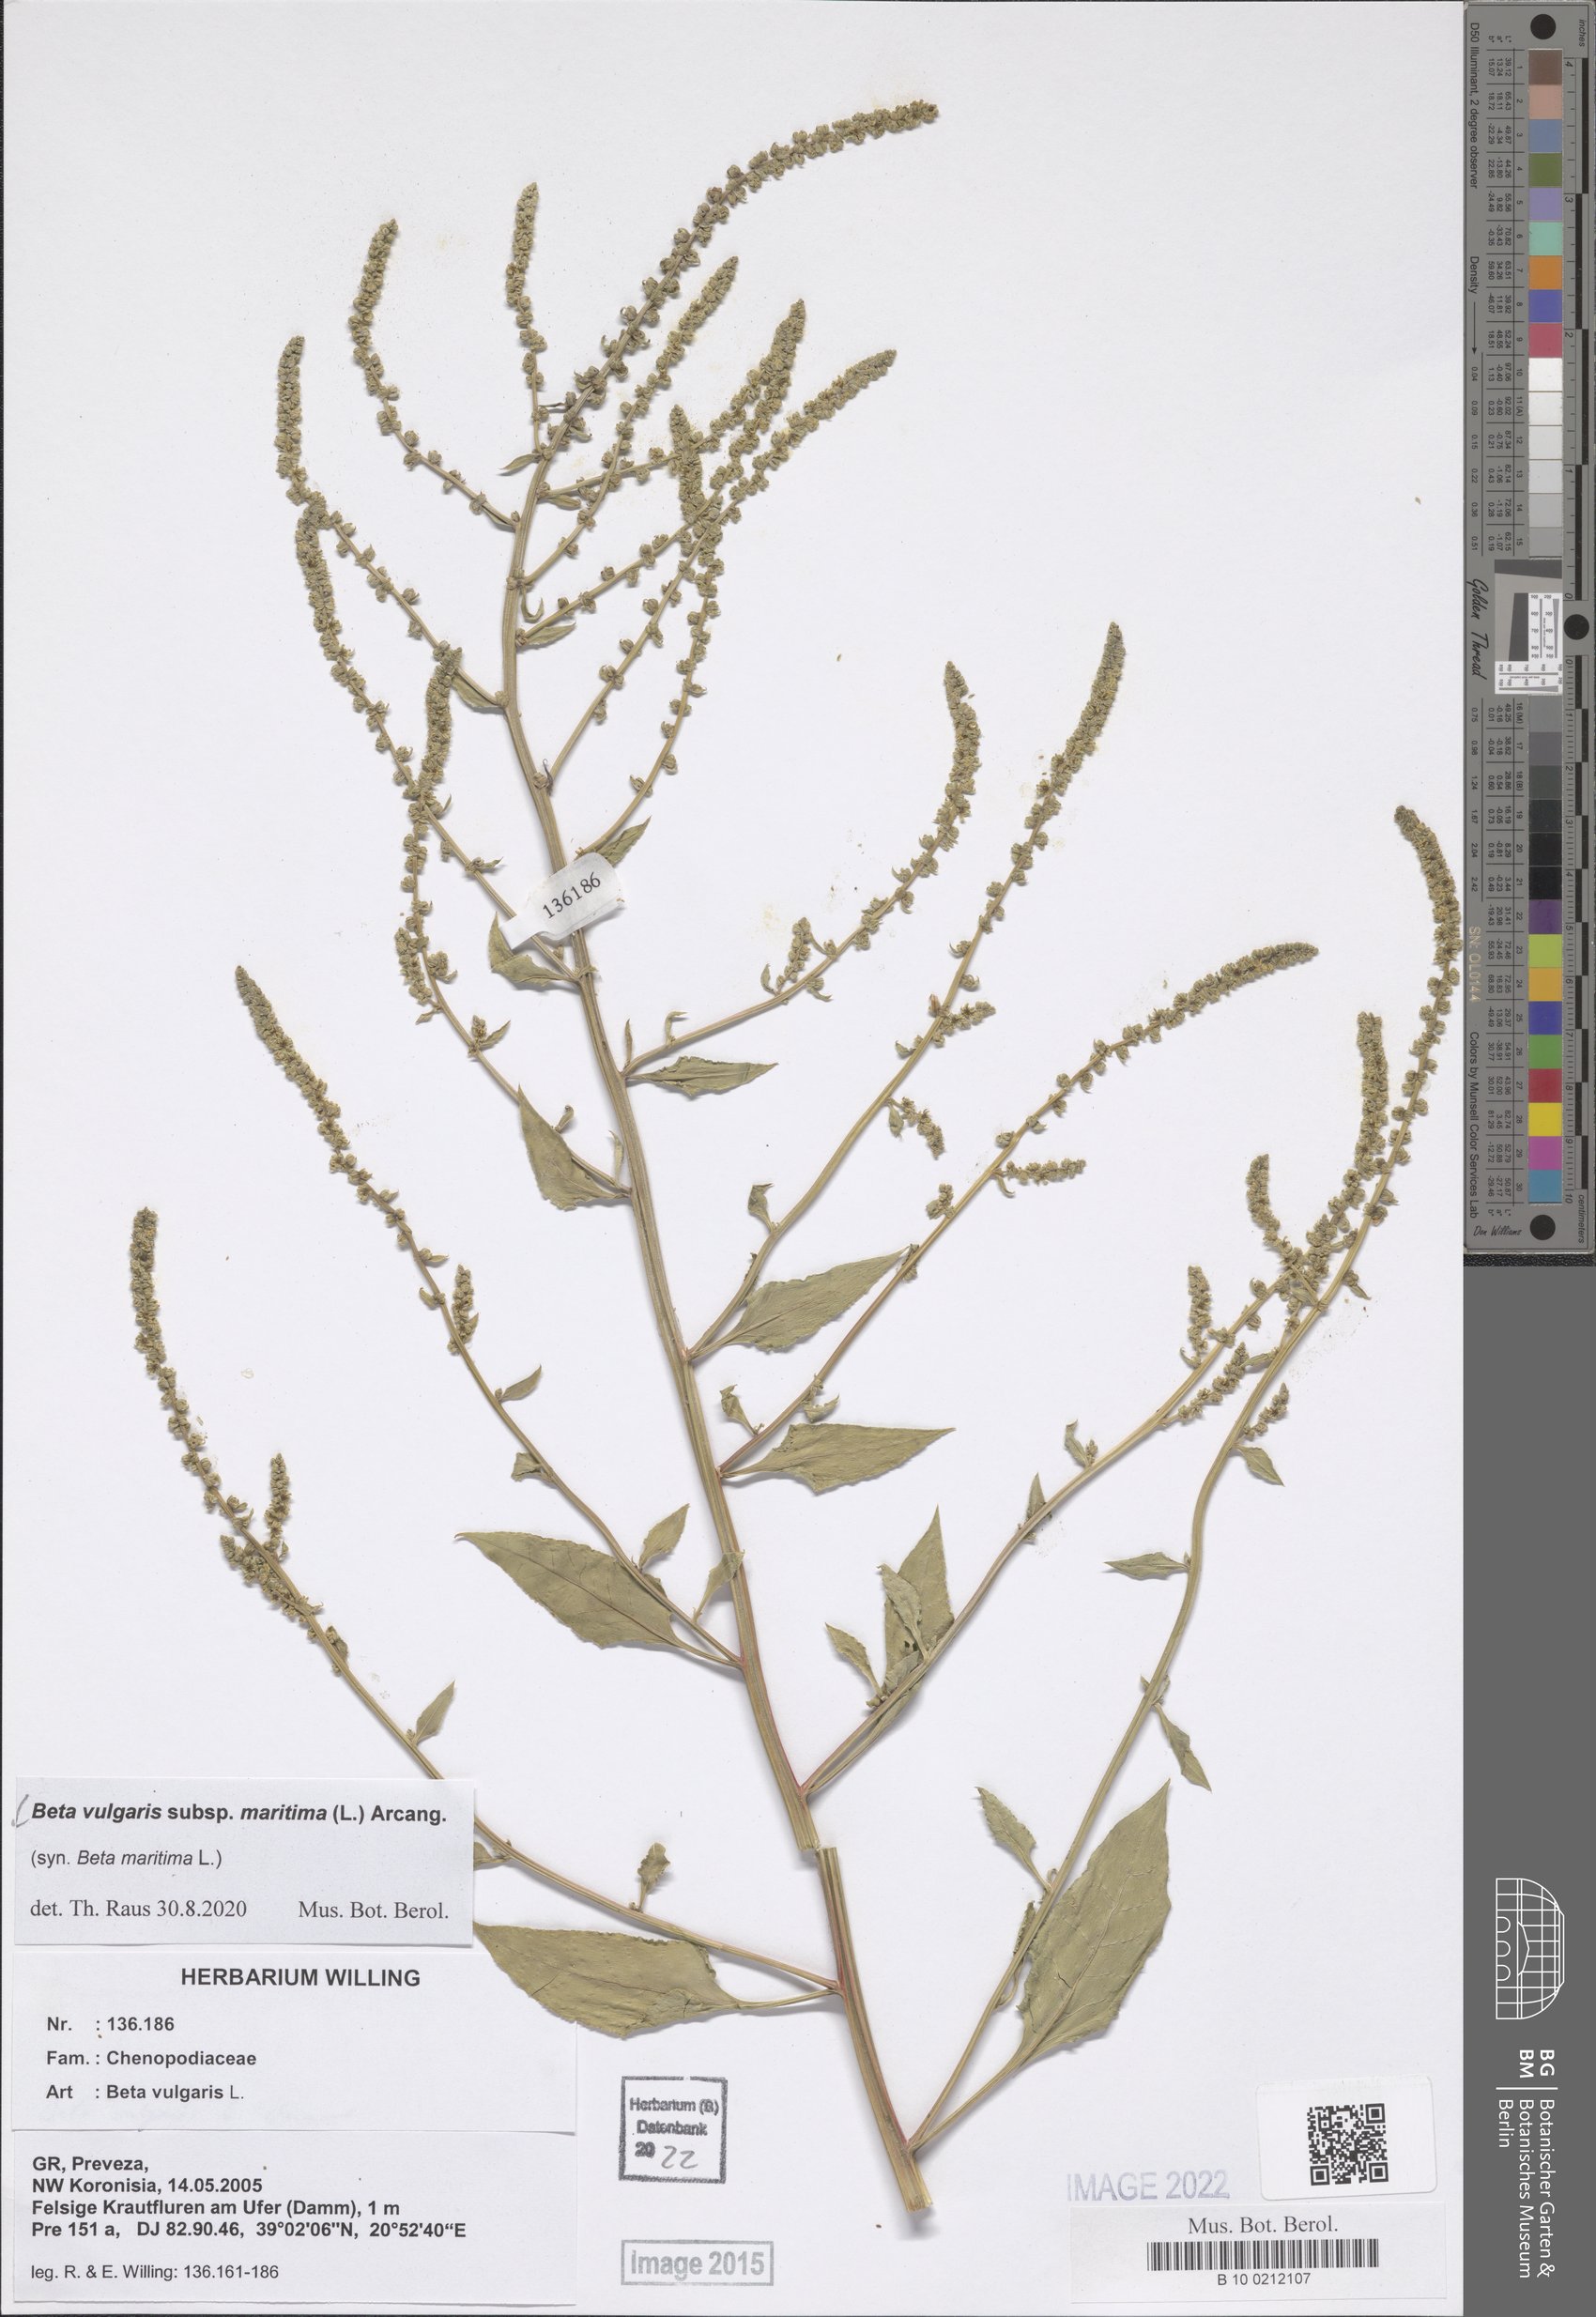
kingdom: Plantae
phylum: Tracheophyta
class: Magnoliopsida
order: Caryophyllales
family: Amaranthaceae
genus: Beta
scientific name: Beta maritima
